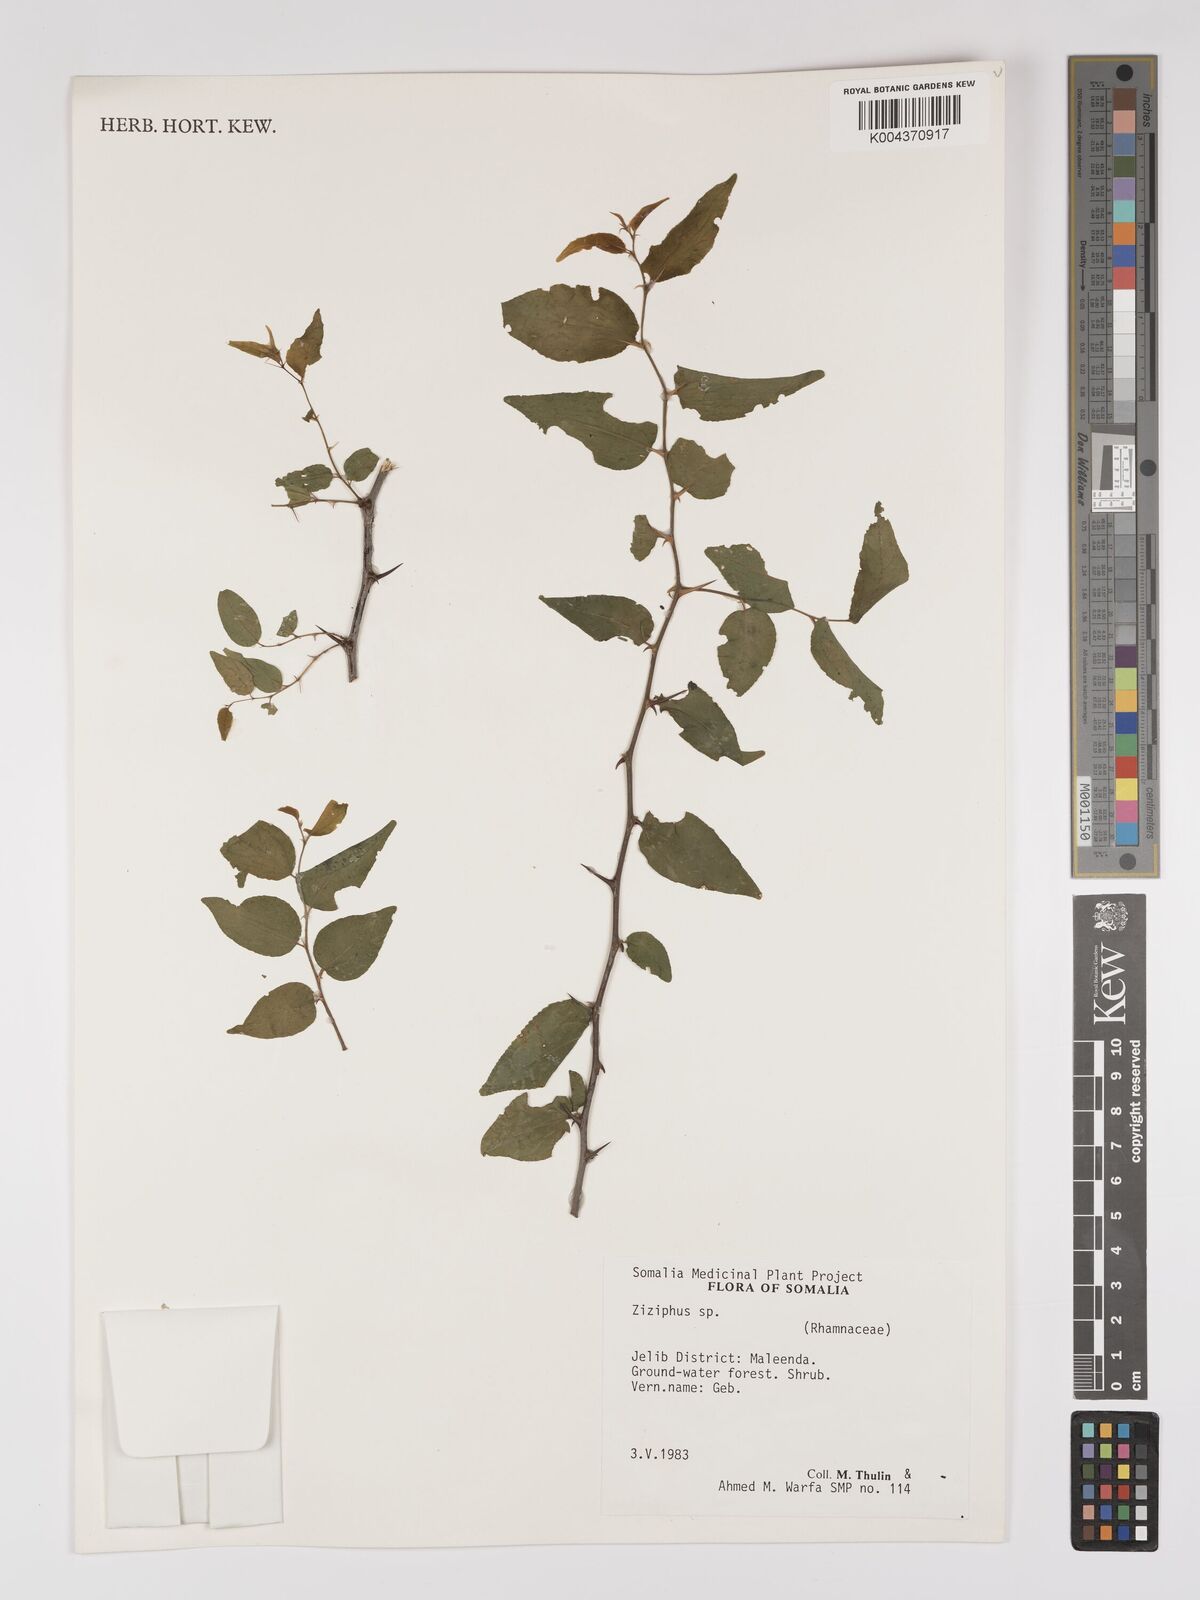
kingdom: Plantae
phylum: Tracheophyta
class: Magnoliopsida
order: Rosales
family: Rhamnaceae
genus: Ziziphus
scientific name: Ziziphus
